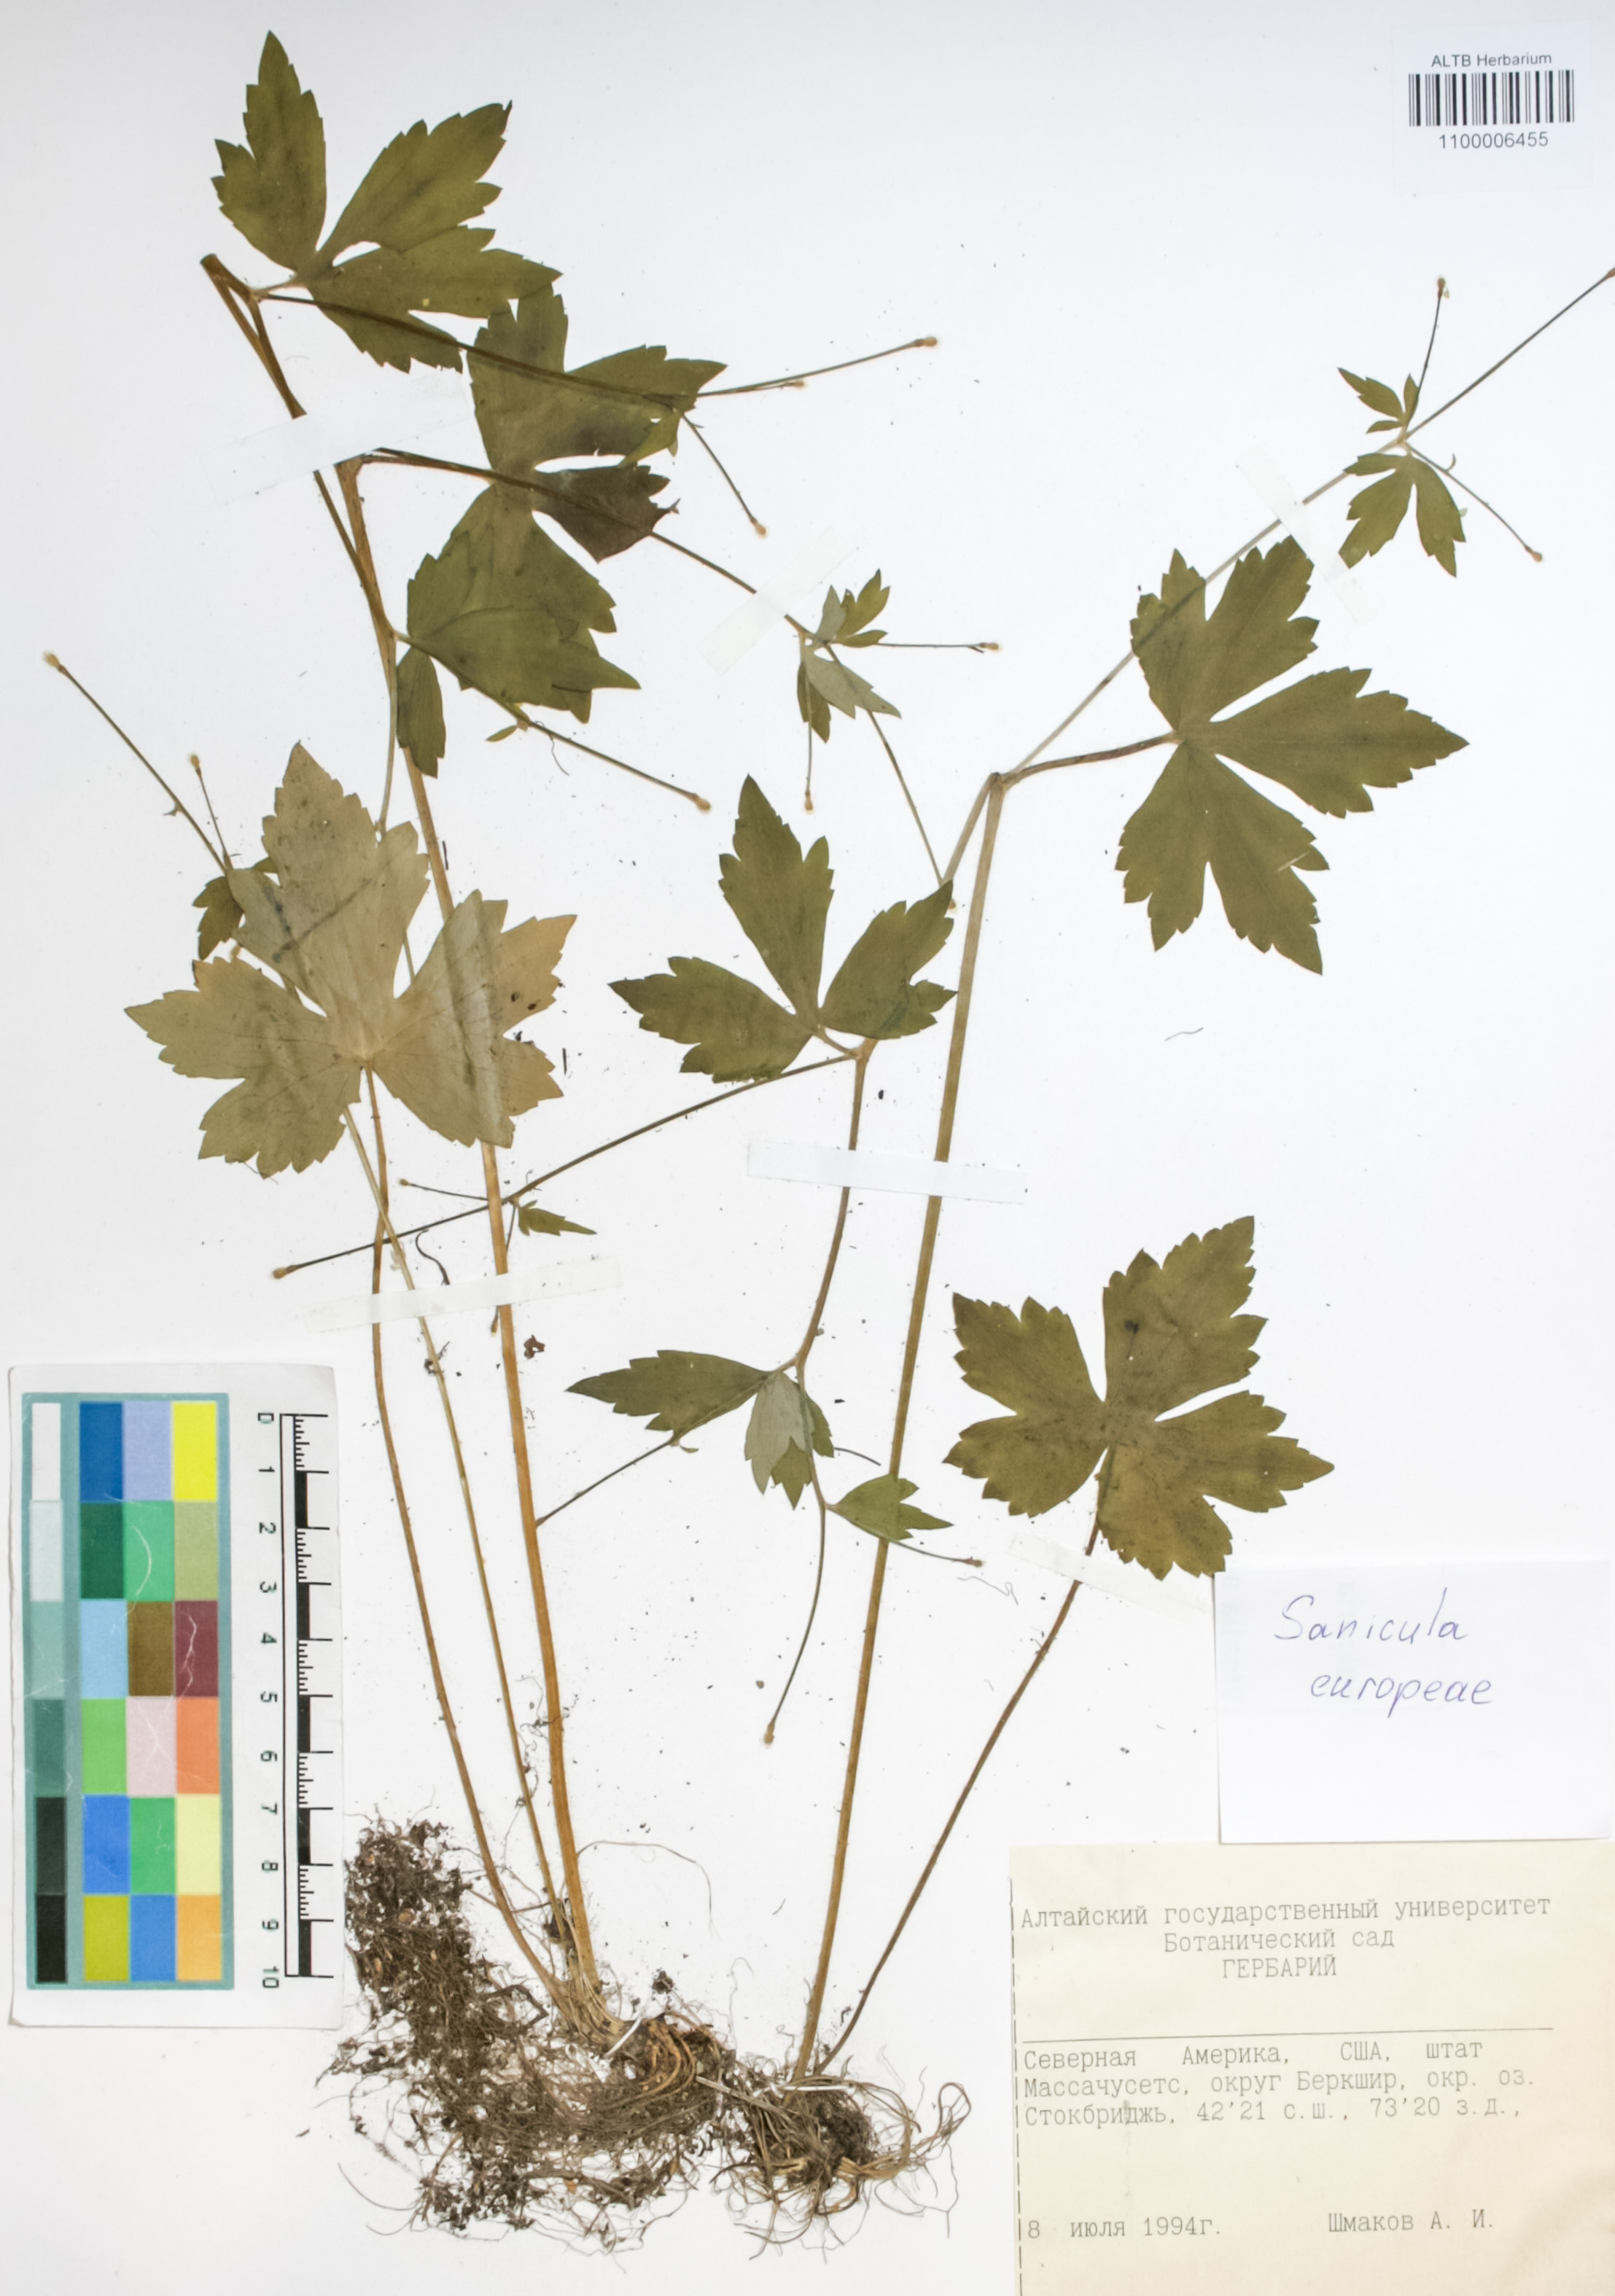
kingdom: Plantae
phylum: Tracheophyta
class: Magnoliopsida
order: Apiales
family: Apiaceae
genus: Sanicula
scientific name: Sanicula europaea
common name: Sanicle
